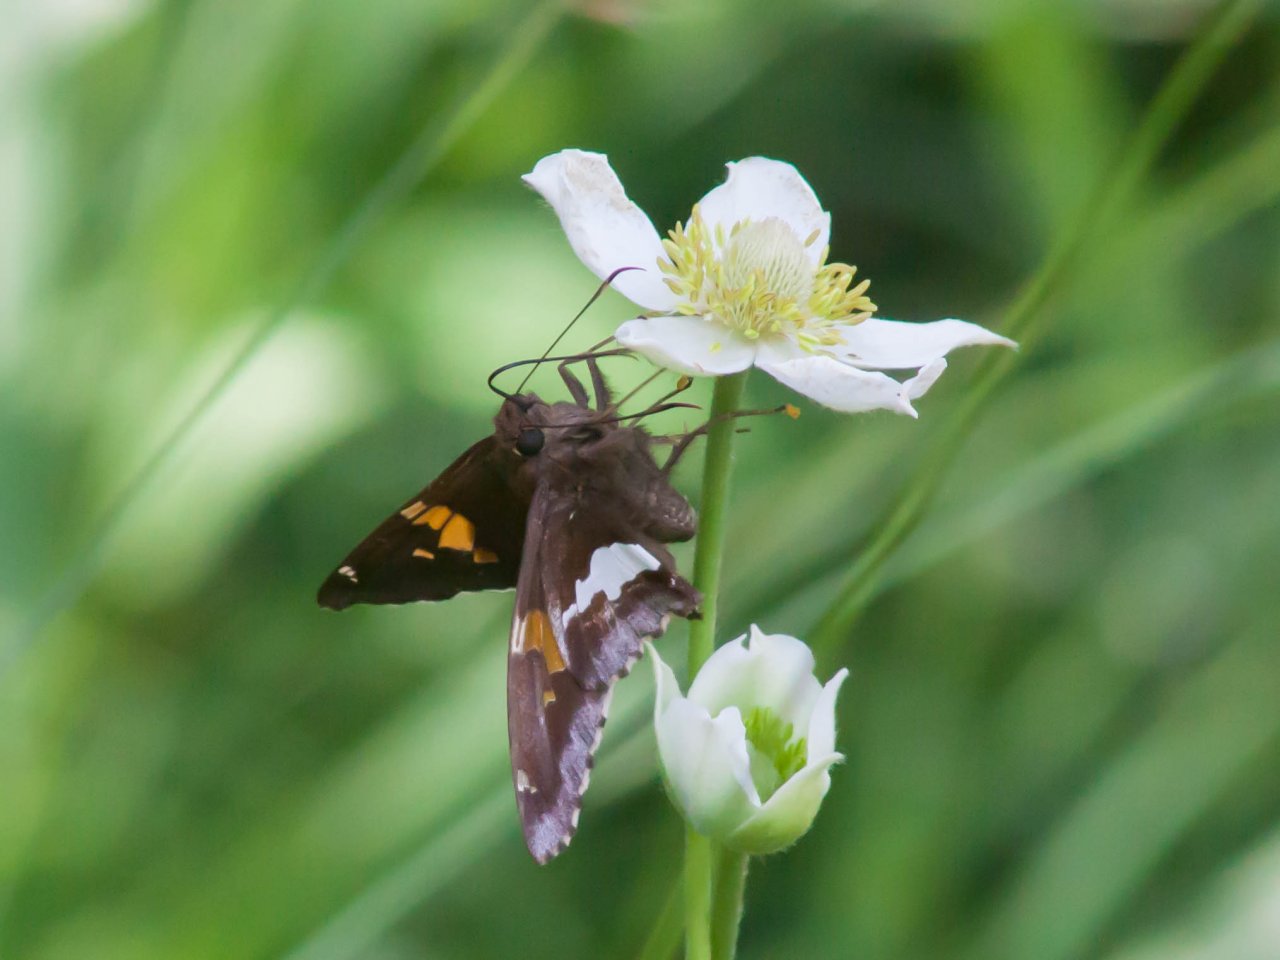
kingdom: Animalia
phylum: Arthropoda
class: Insecta
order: Lepidoptera
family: Hesperiidae
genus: Epargyreus
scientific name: Epargyreus clarus
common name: Silver-spotted Skipper
